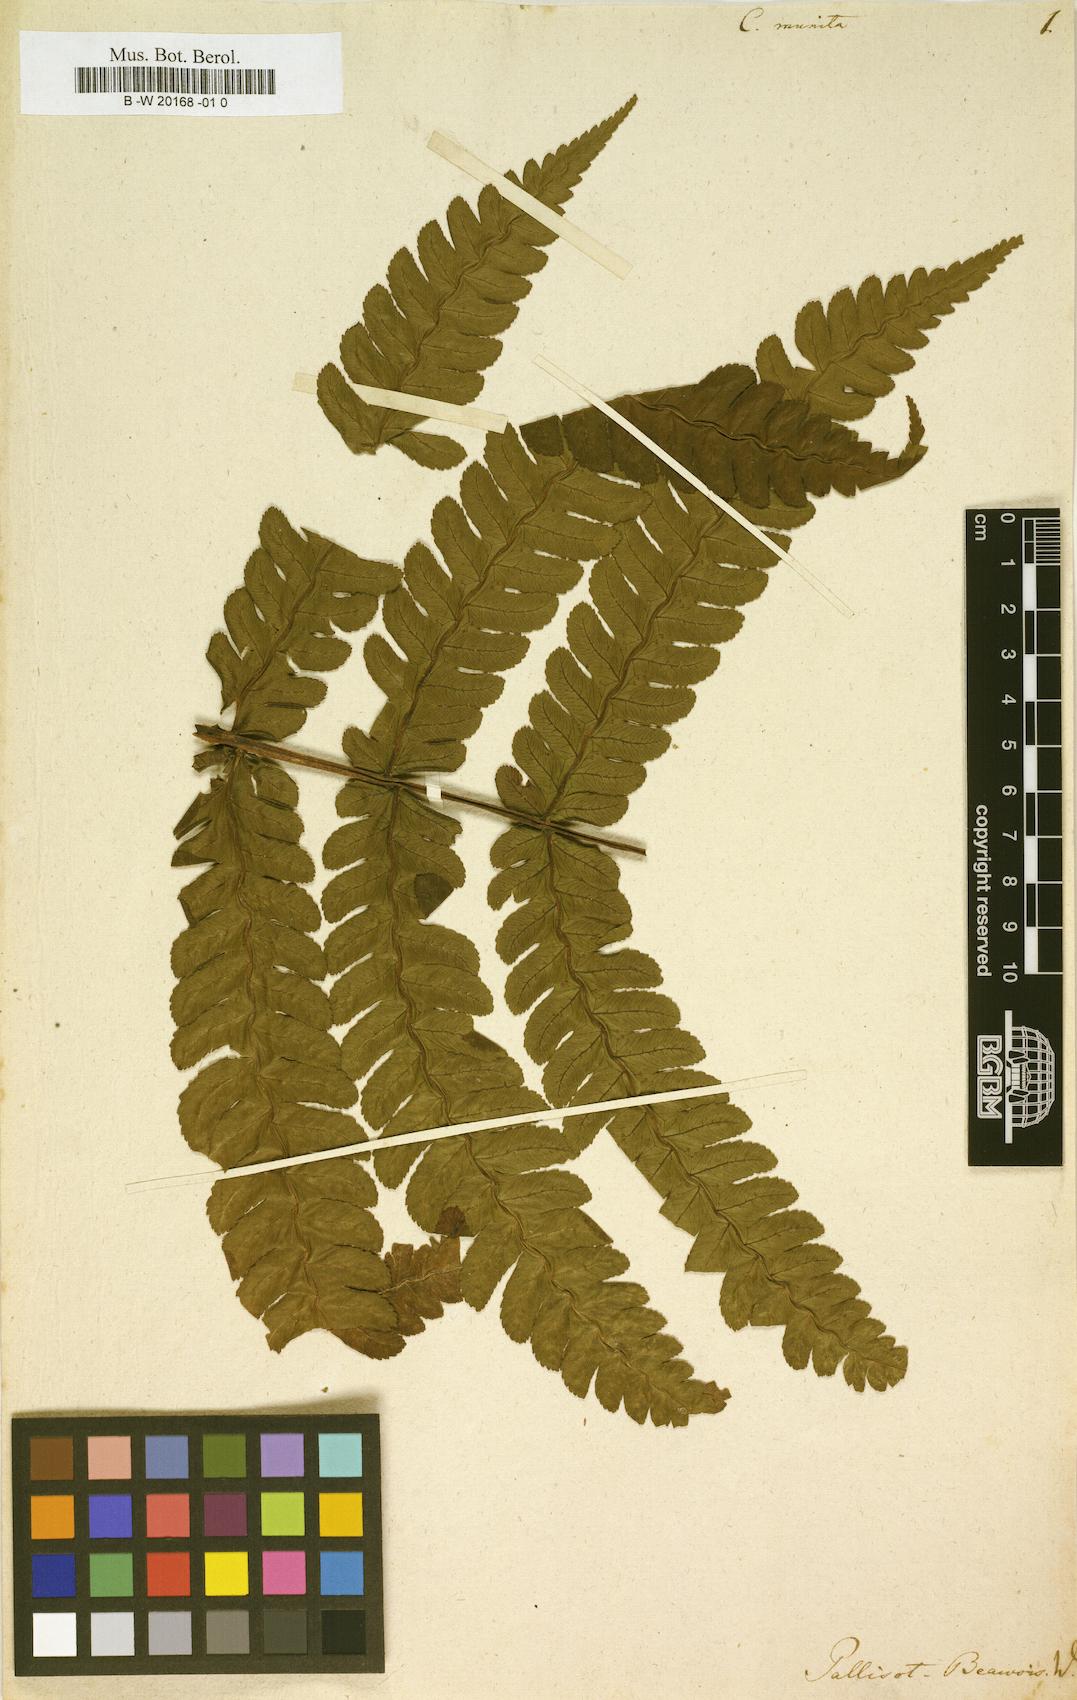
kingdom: Plantae
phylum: Tracheophyta
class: Polypodiopsida
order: Cyatheales
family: Cyatheaceae
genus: Cyathea
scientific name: Cyathea munita
